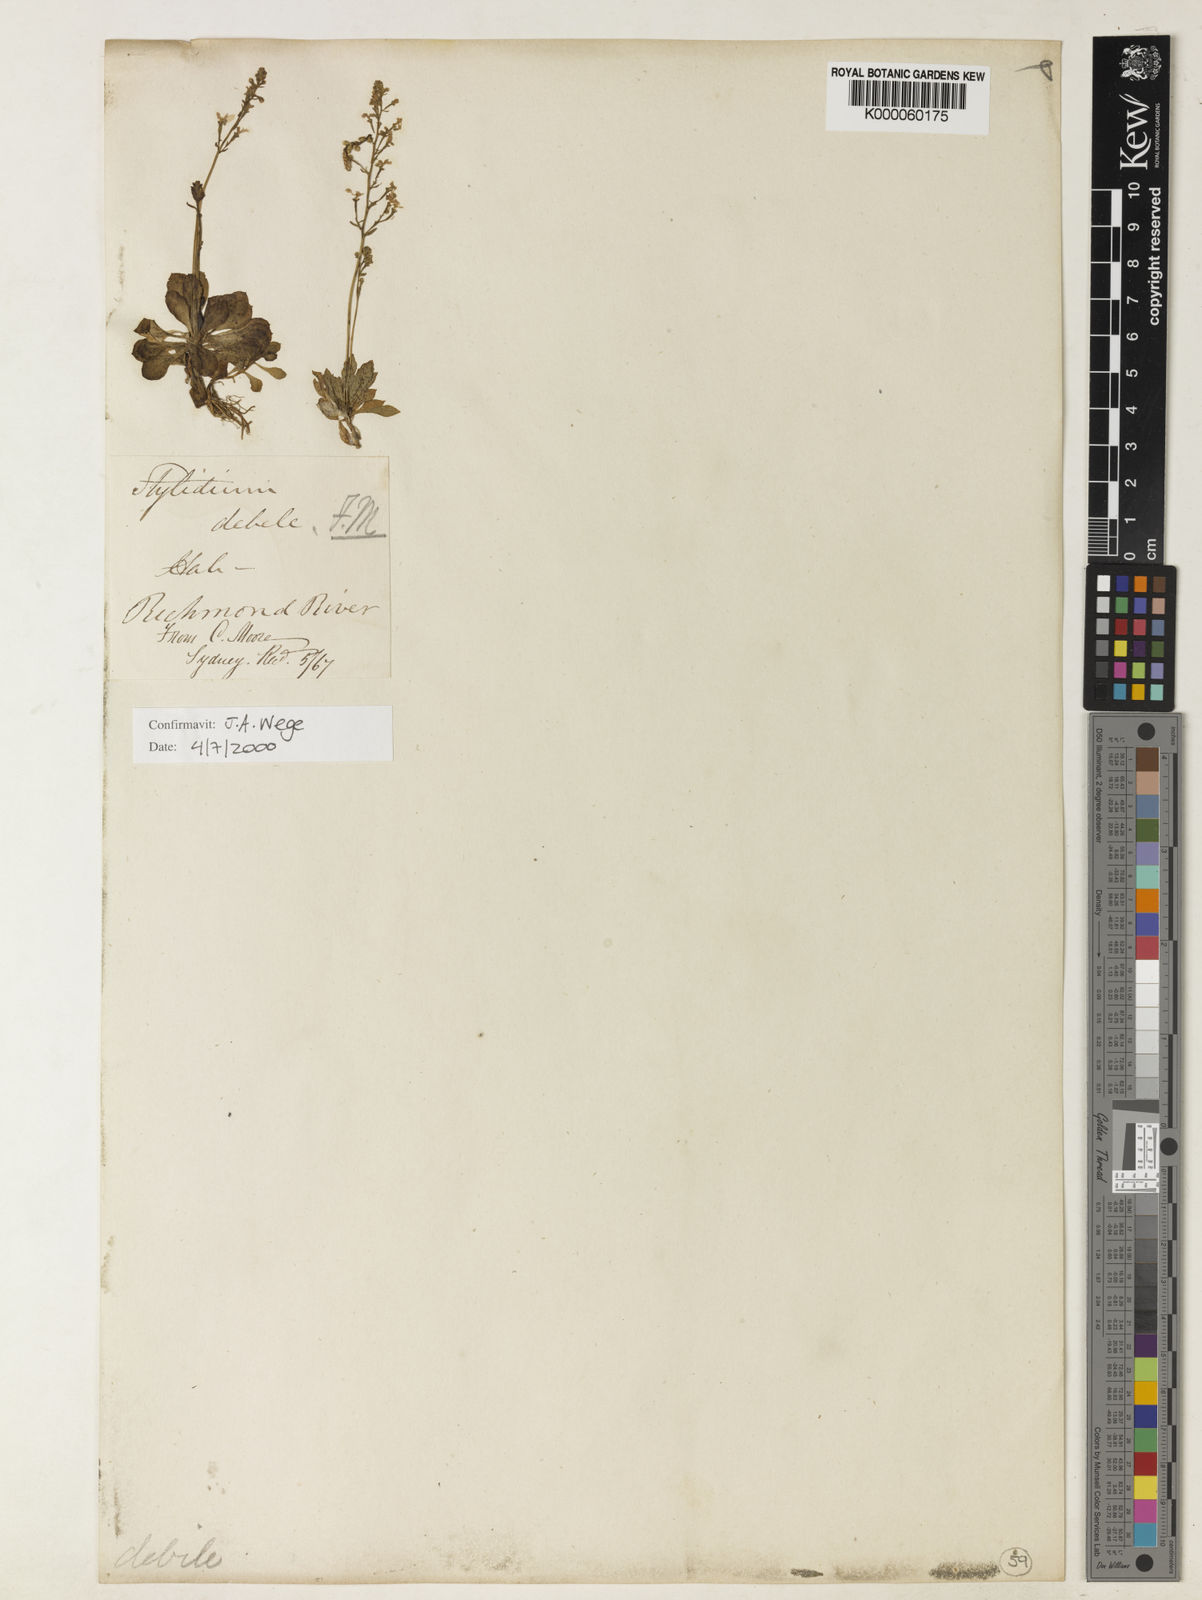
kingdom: Plantae
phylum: Tracheophyta
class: Magnoliopsida
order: Asterales
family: Stylidiaceae
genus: Stylidium
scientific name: Stylidium debile
